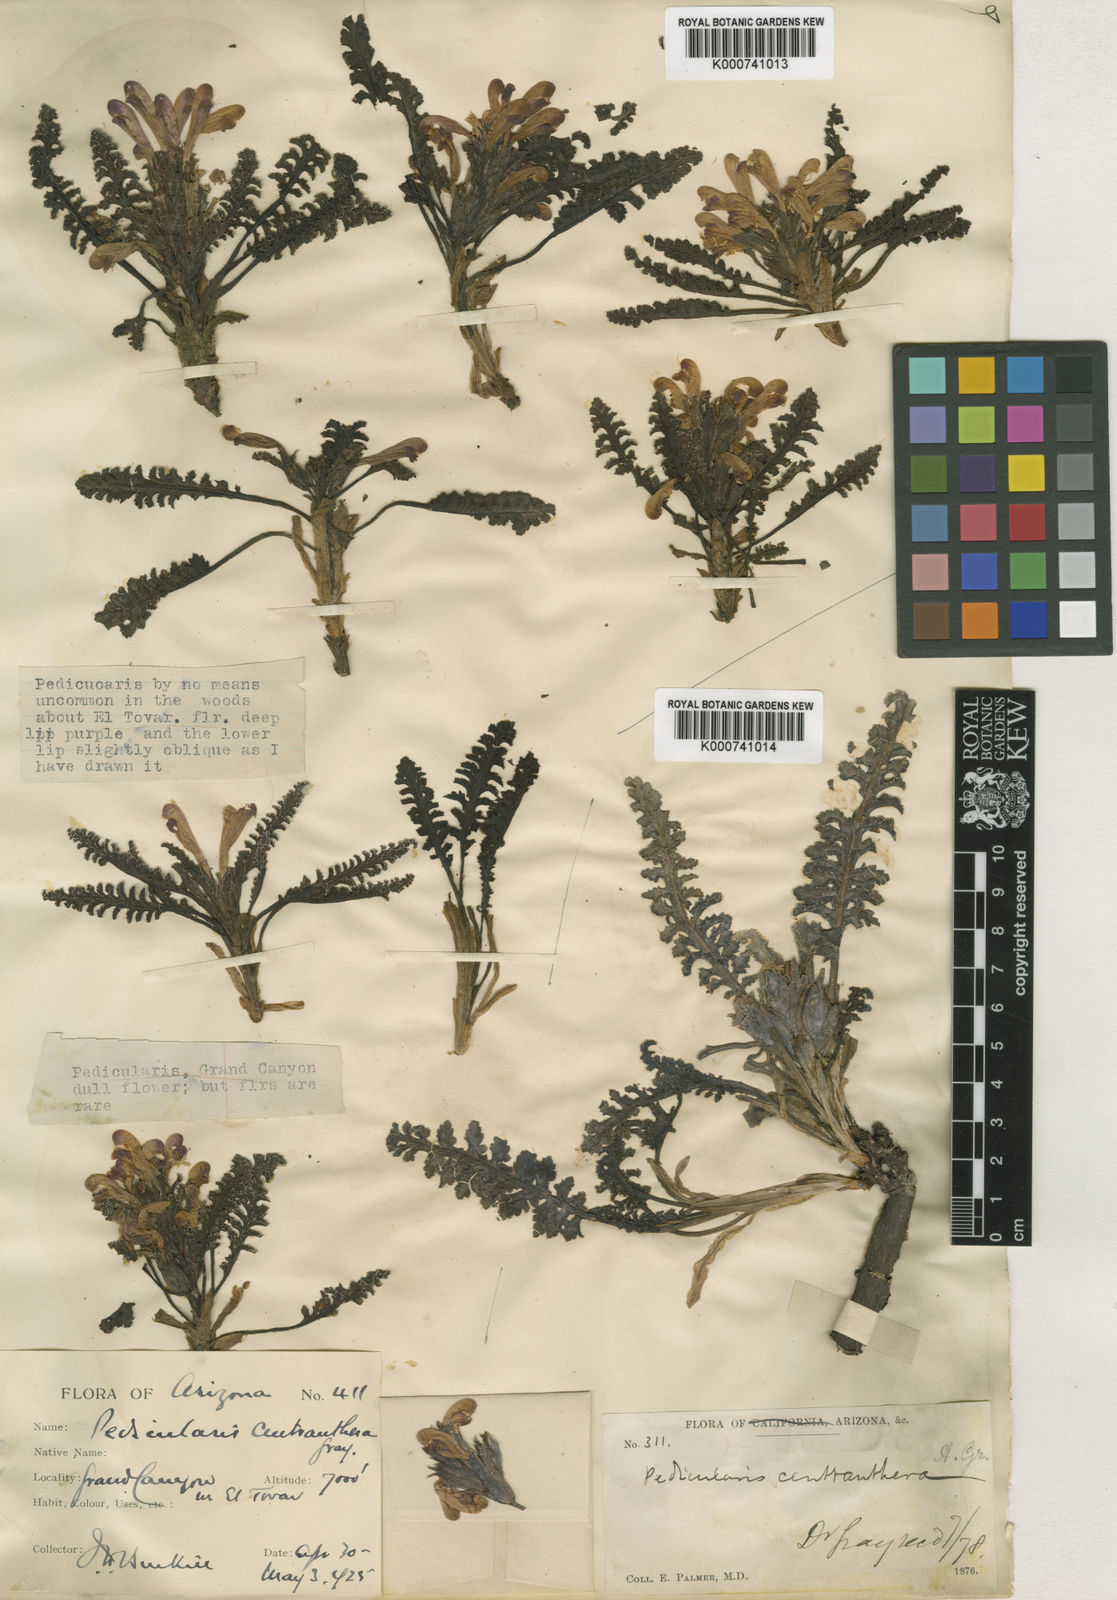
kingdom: Plantae
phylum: Tracheophyta
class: Magnoliopsida
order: Lamiales
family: Orobanchaceae
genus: Pedicularis
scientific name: Pedicularis centranthera
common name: Dwarf lousewort
